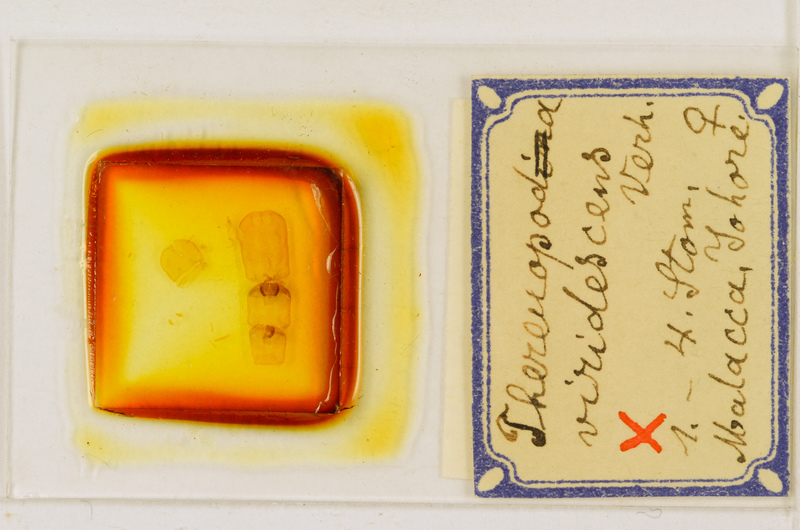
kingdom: Animalia
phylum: Arthropoda
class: Chilopoda
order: Scutigeromorpha
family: Scutigeridae
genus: Thereuopoda
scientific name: Thereuopoda longicornis
